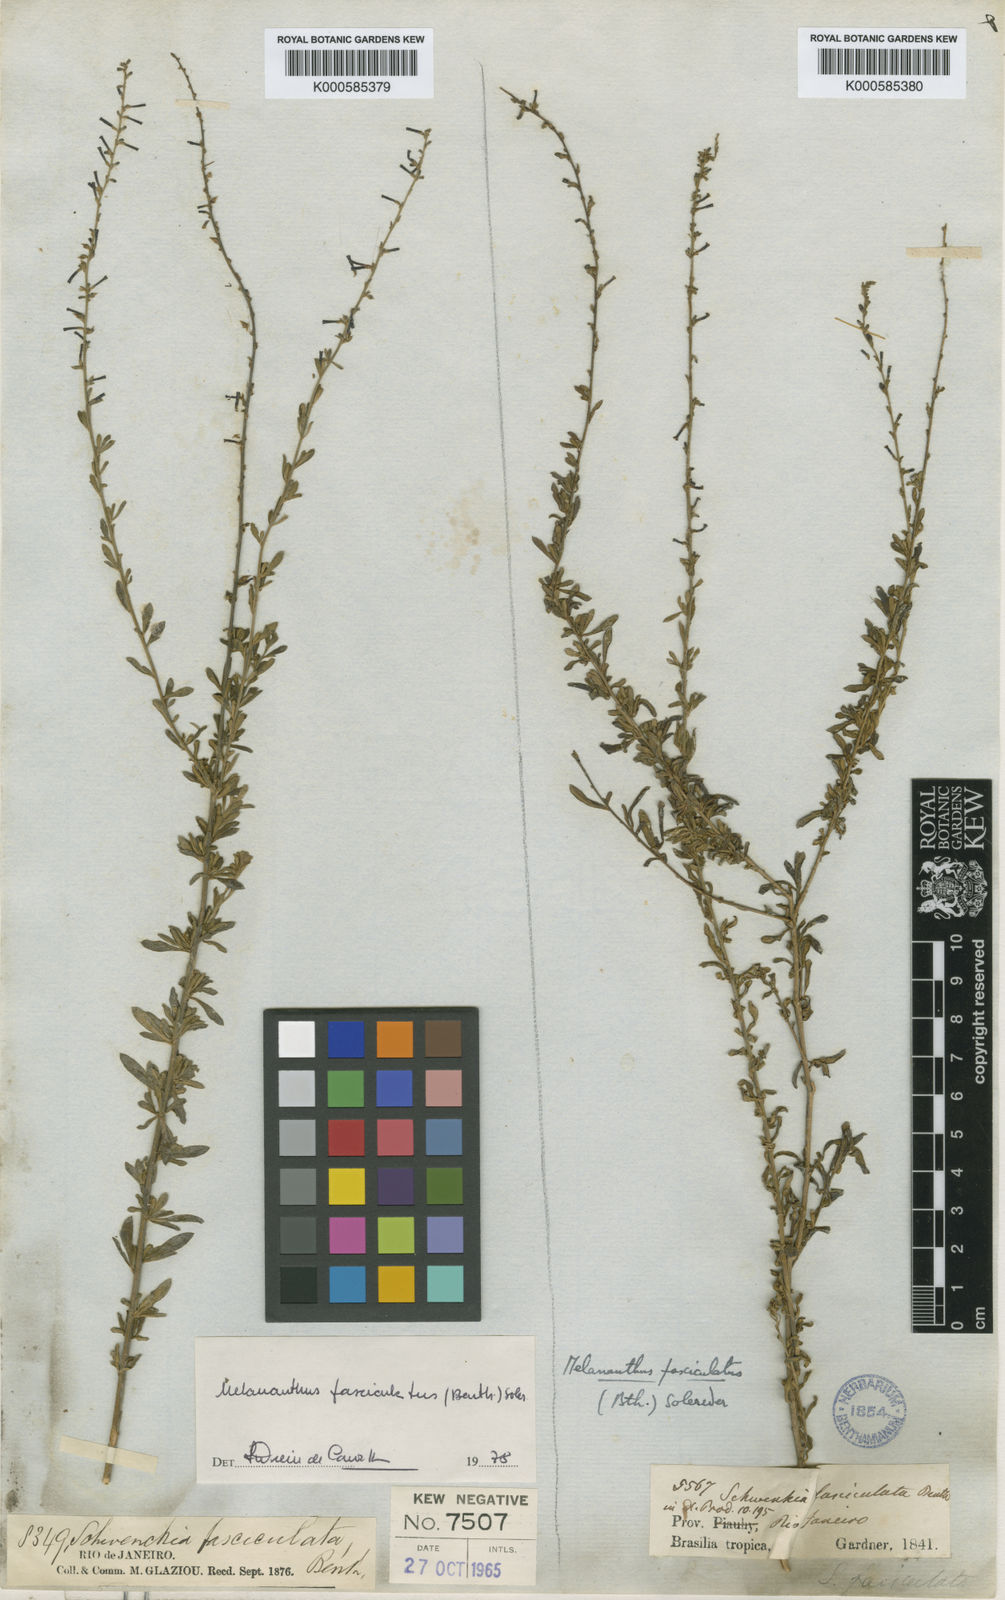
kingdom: Plantae
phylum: Tracheophyta
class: Magnoliopsida
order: Solanales
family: Solanaceae
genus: Melananthus
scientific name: Melananthus fasciculatus
